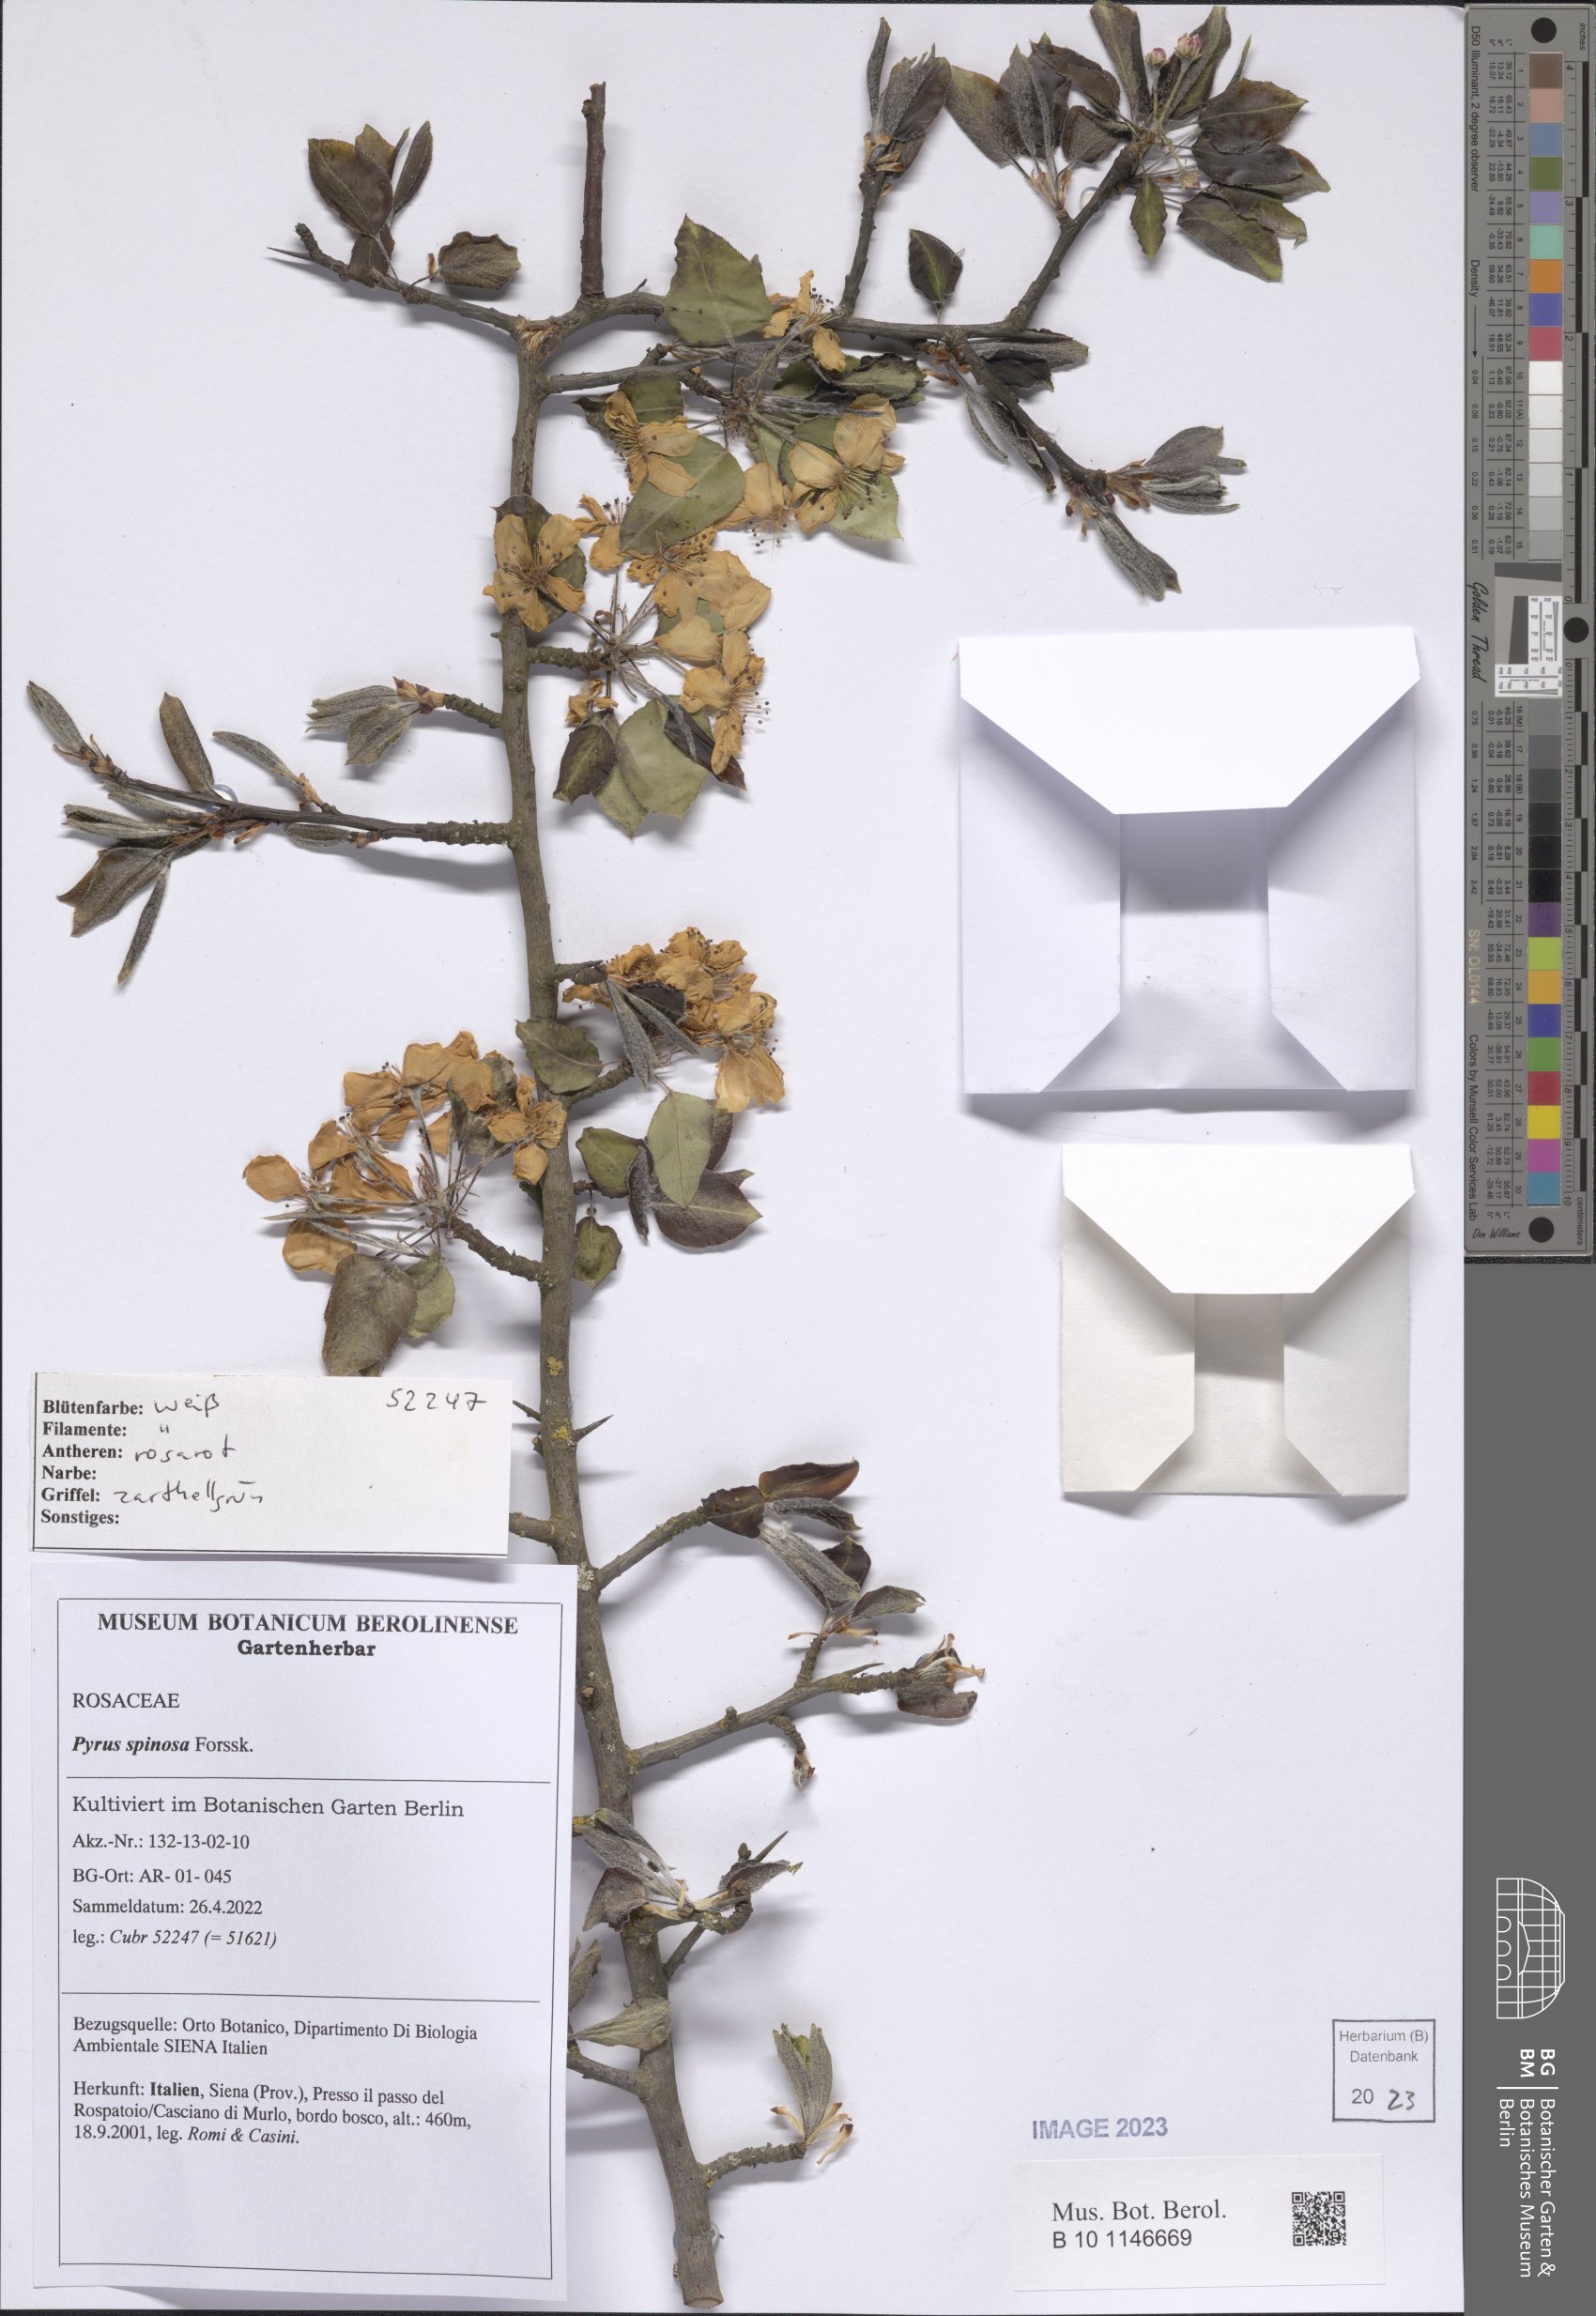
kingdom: Plantae
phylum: Tracheophyta
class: Magnoliopsida
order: Rosales
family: Rosaceae
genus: Pyrus
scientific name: Pyrus boissieriana
